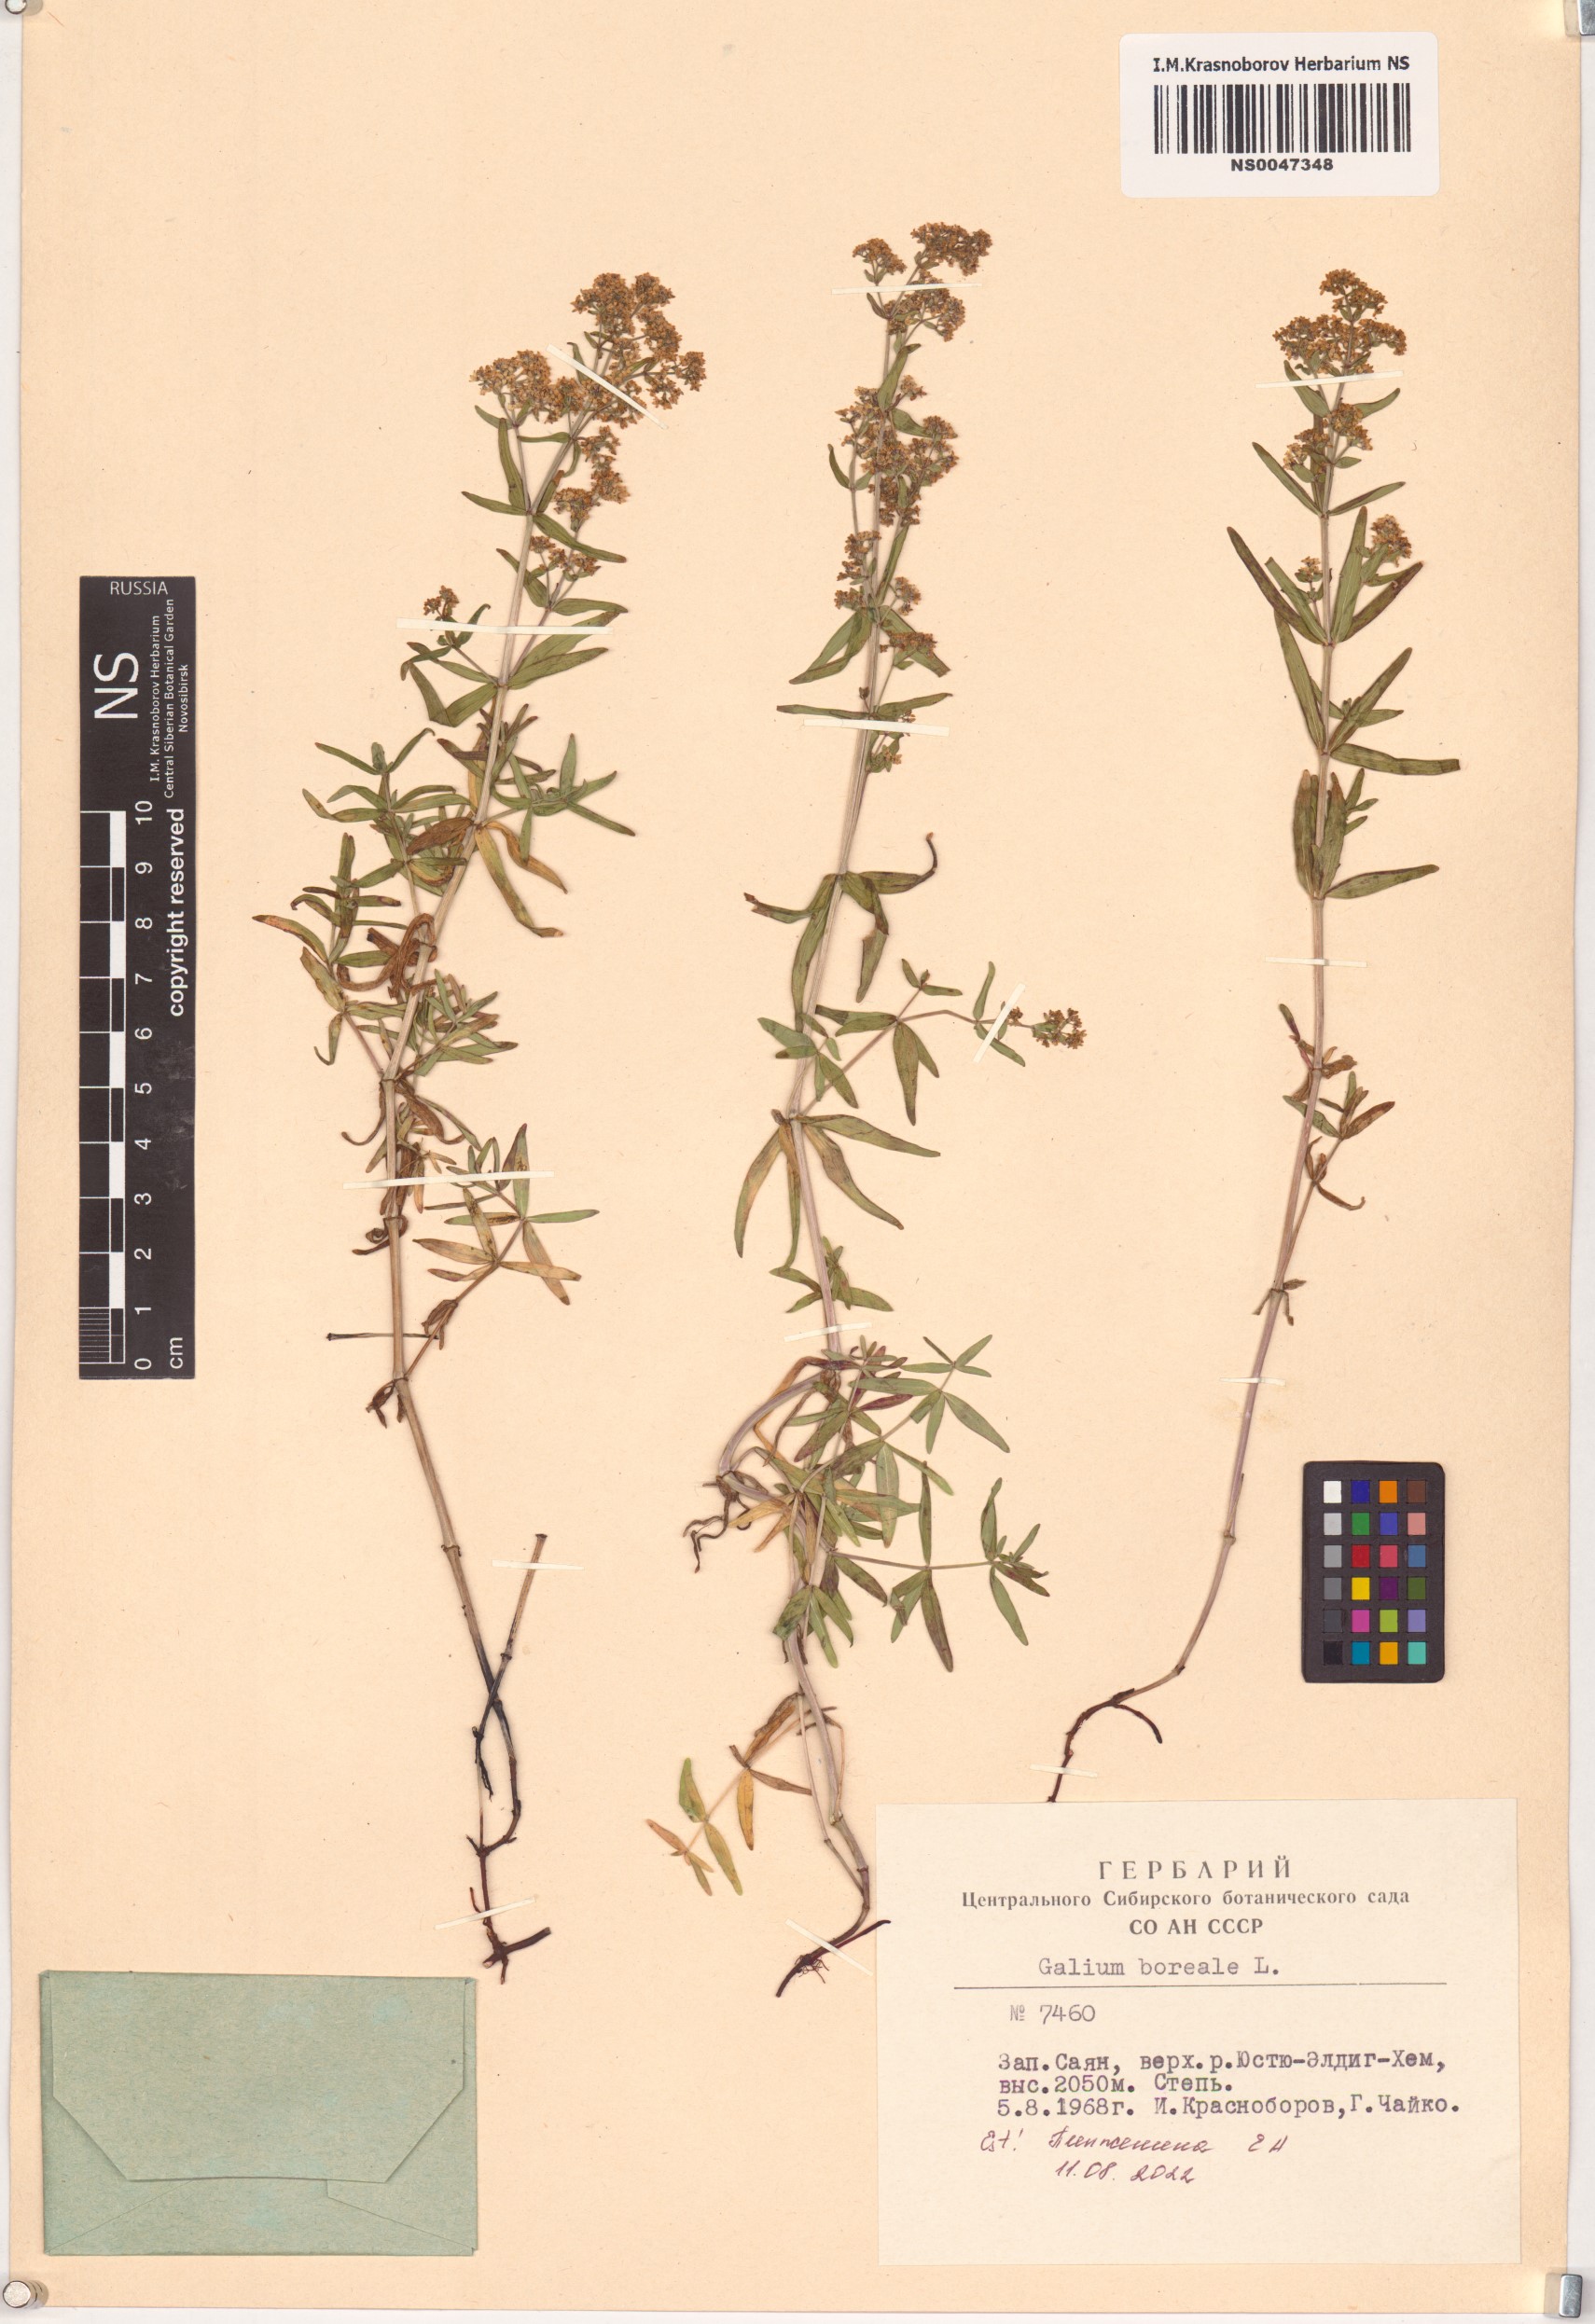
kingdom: Plantae
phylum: Tracheophyta
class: Magnoliopsida
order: Gentianales
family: Rubiaceae
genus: Galium
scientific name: Galium boreale
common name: Northern bedstraw
